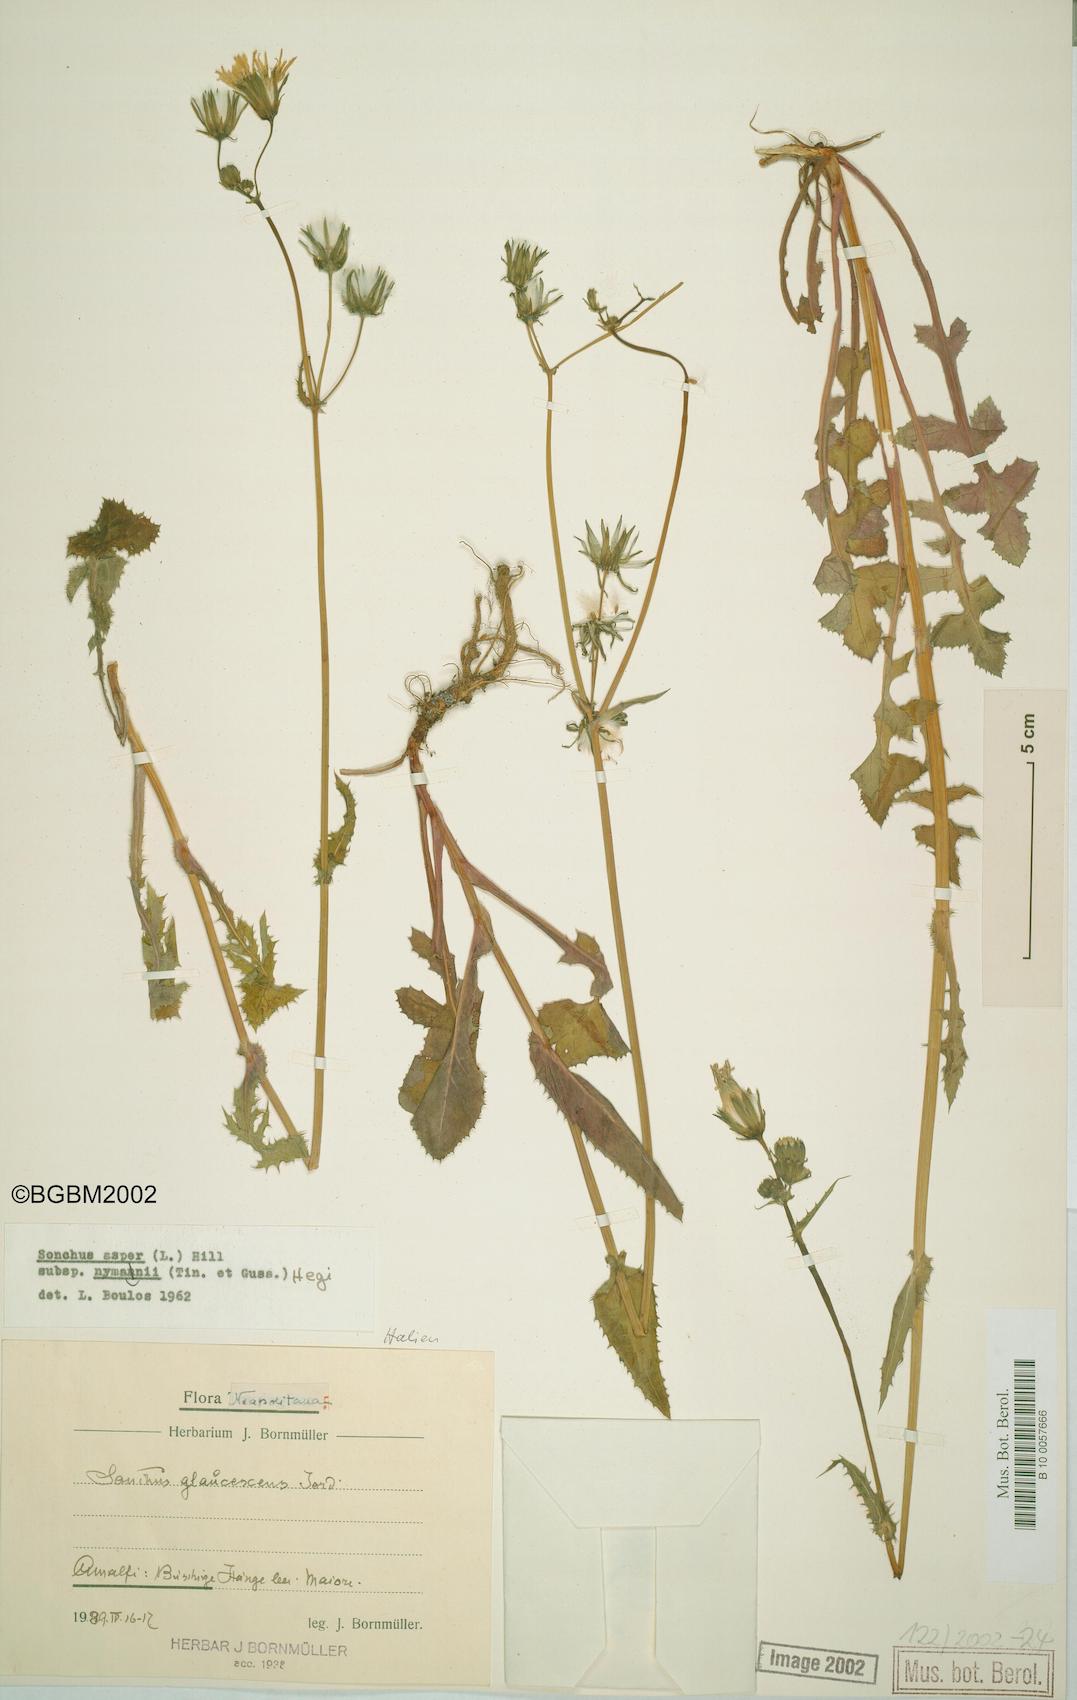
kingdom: Plantae
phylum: Tracheophyta
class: Magnoliopsida
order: Asterales
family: Asteraceae
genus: Sonchus
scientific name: Sonchus asper
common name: Prickly sow-thistle
